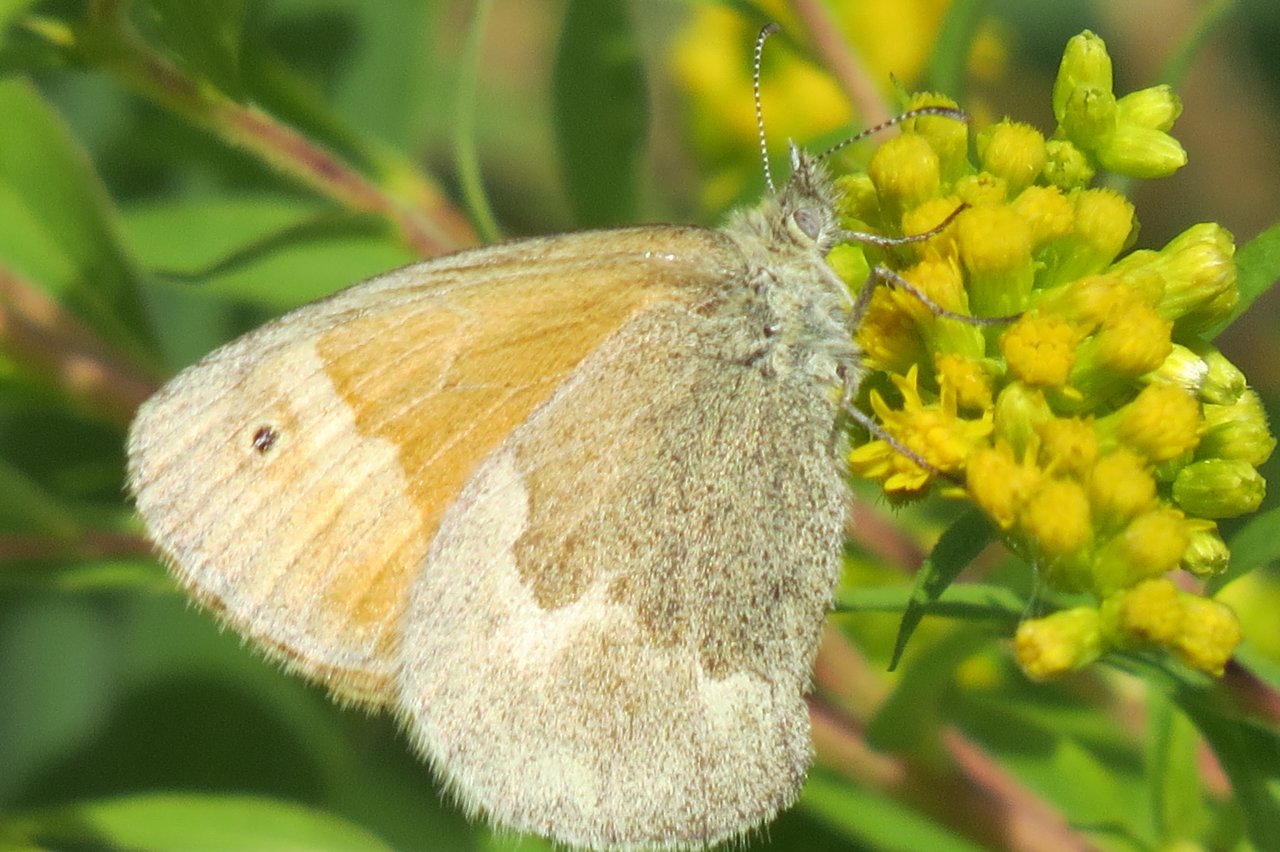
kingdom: Animalia
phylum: Arthropoda
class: Insecta
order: Lepidoptera
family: Nymphalidae
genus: Coenonympha
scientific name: Coenonympha tullia
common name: Large Heath
